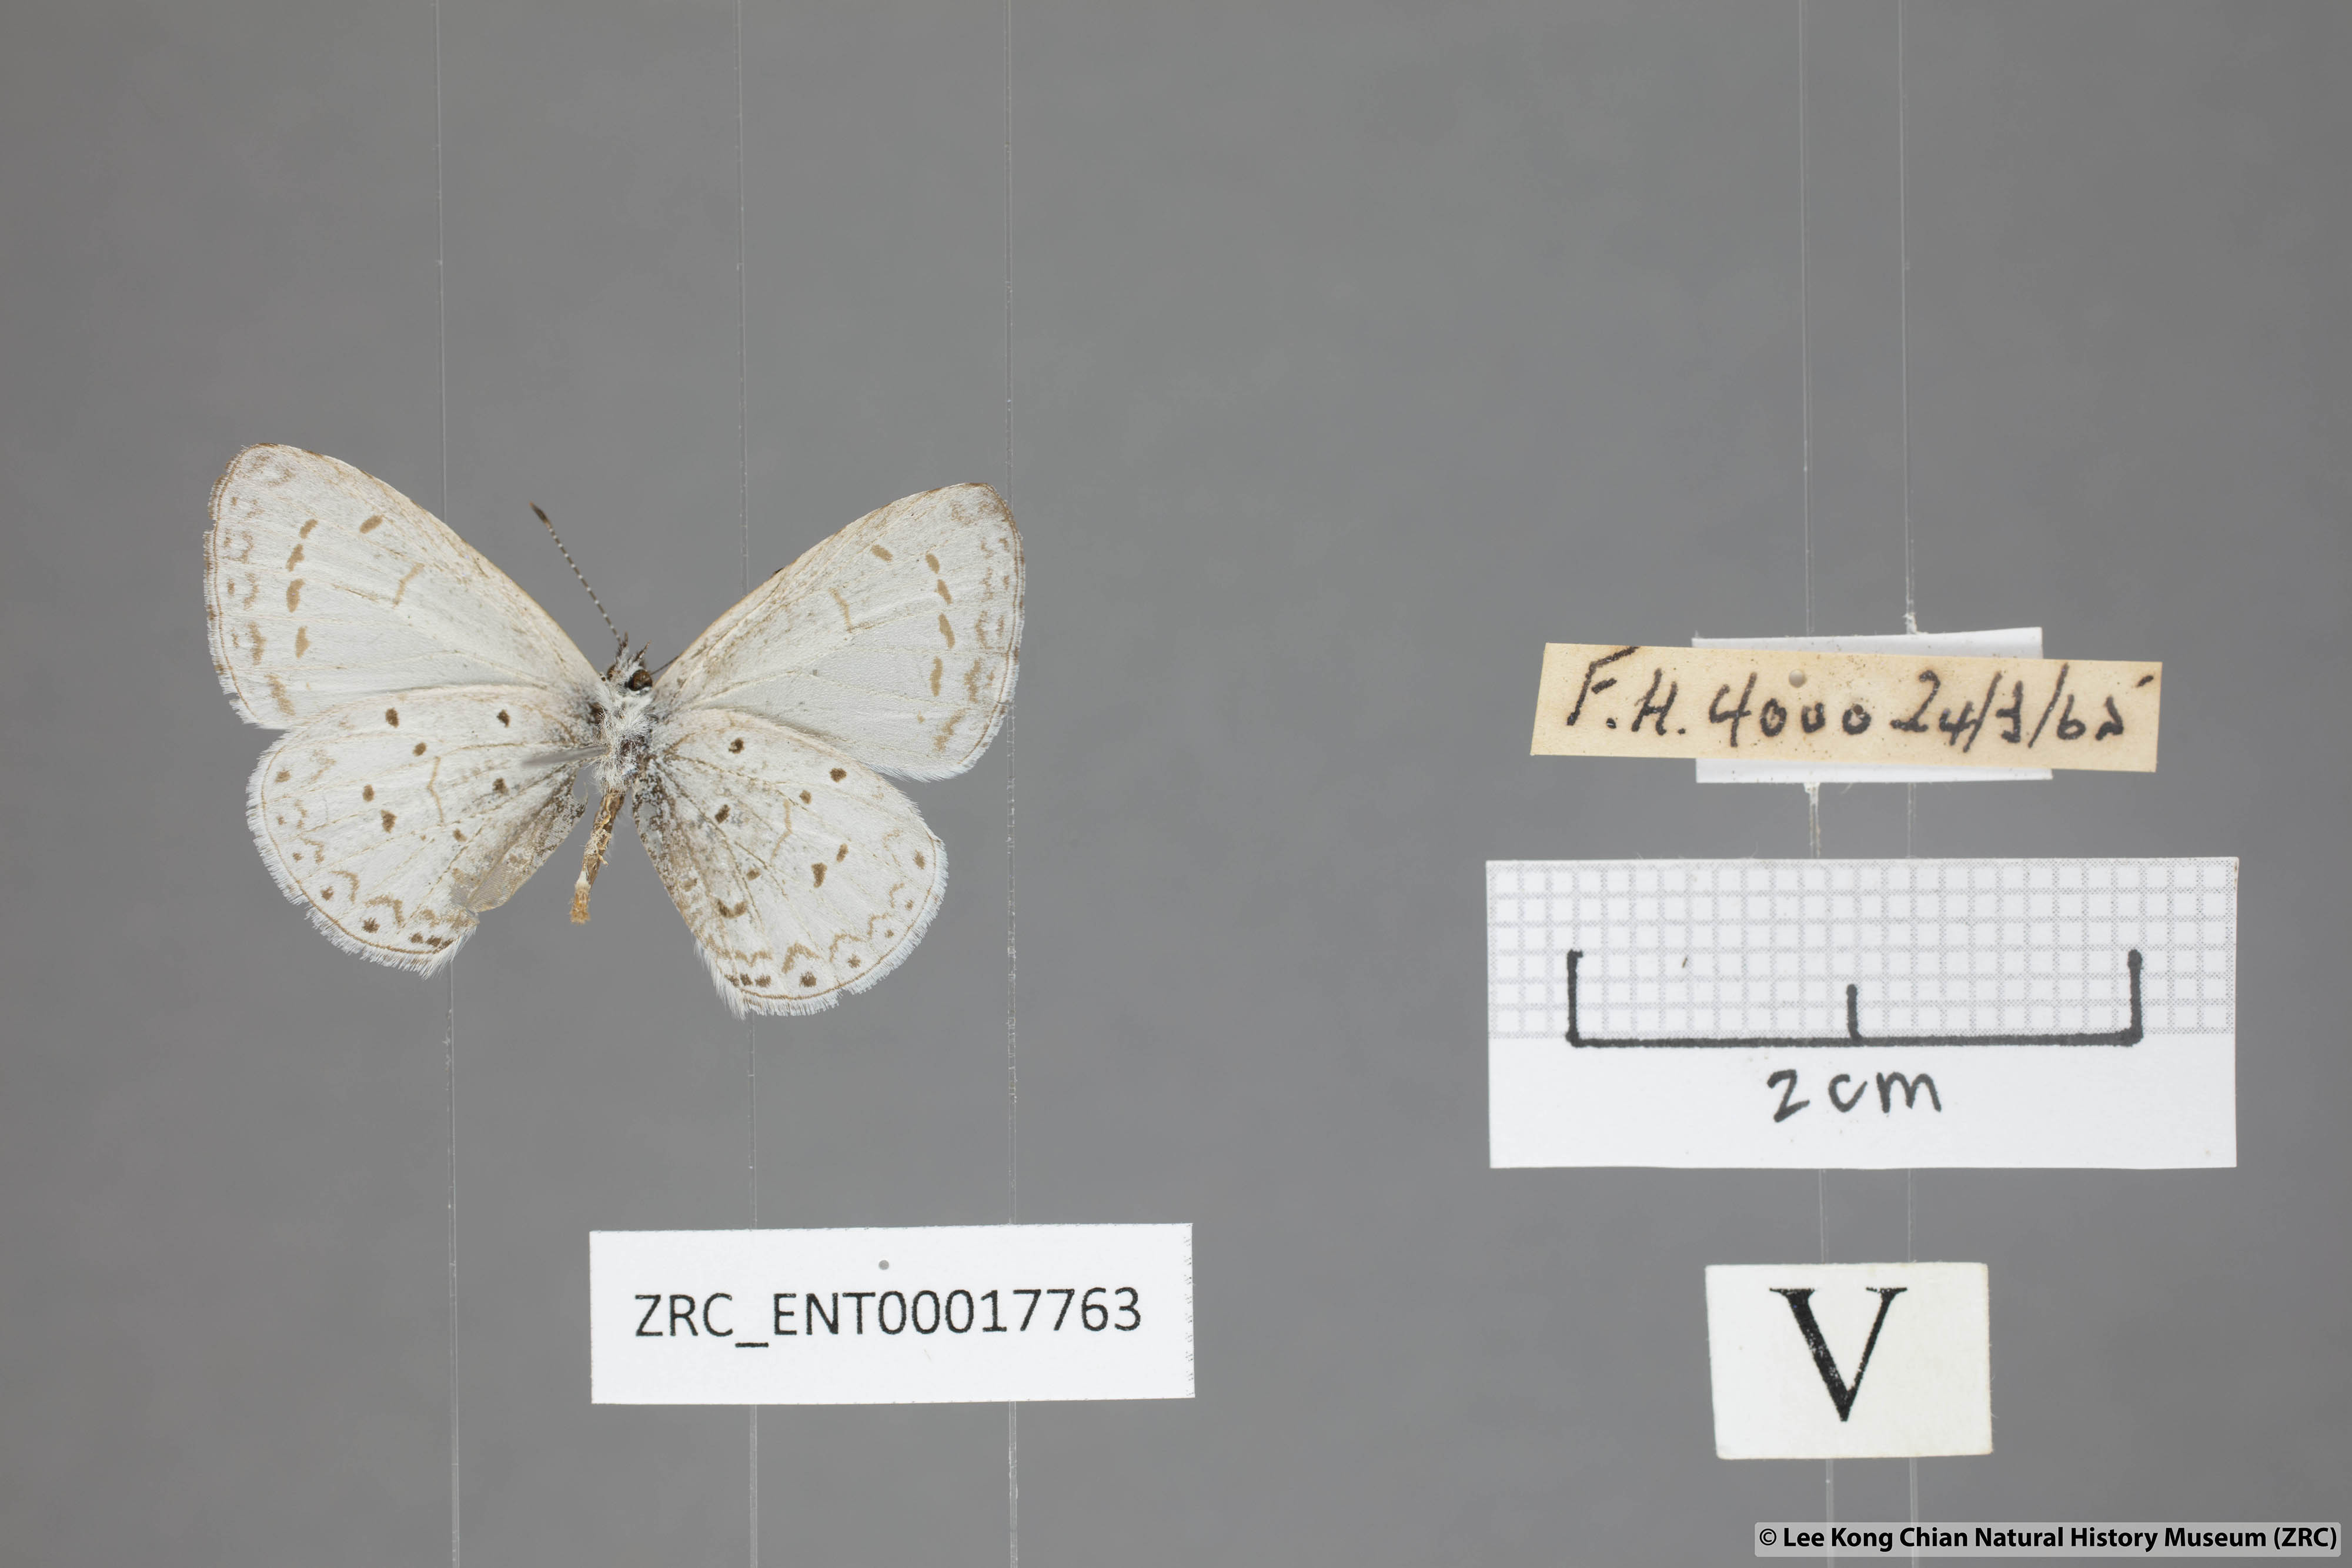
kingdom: Animalia
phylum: Arthropoda
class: Insecta
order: Lepidoptera
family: Lycaenidae
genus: Udara
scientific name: Udara dilectus
